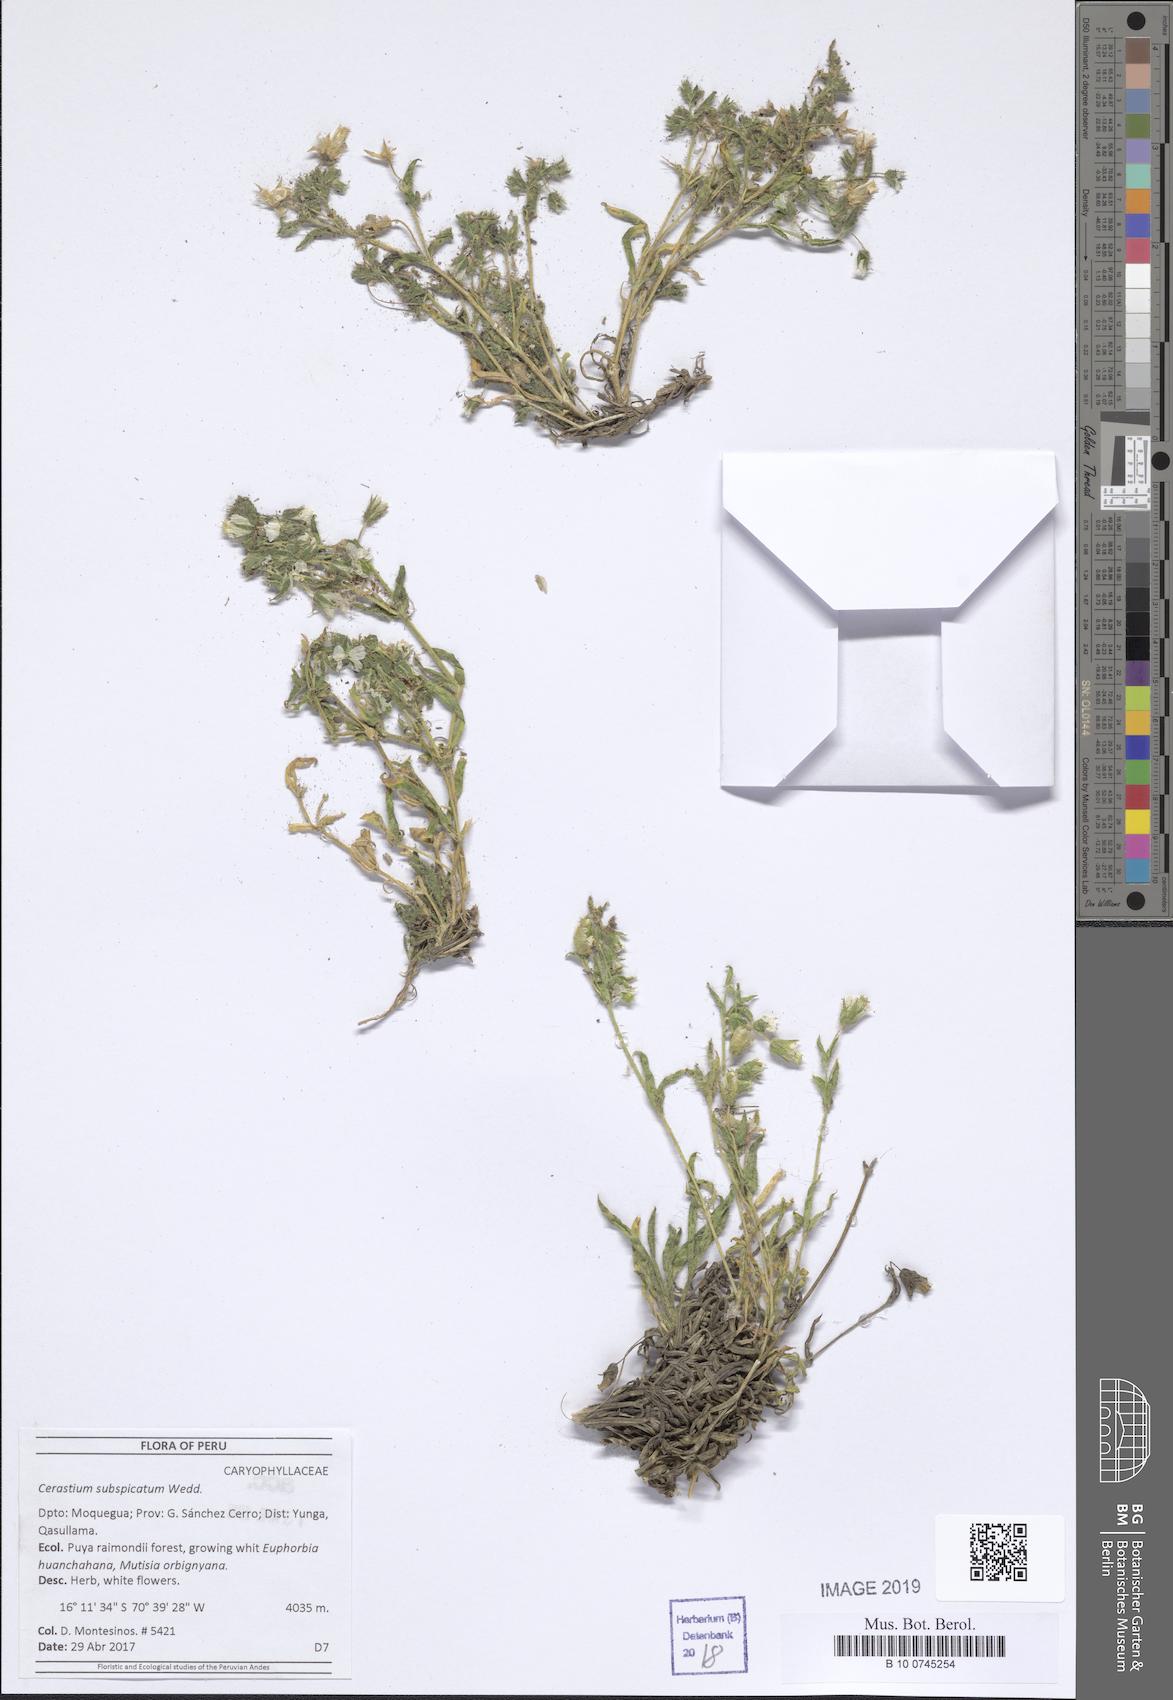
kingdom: Plantae
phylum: Tracheophyta
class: Magnoliopsida
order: Caryophyllales
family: Caryophyllaceae
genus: Cerastium
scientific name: Cerastium subspicatum
